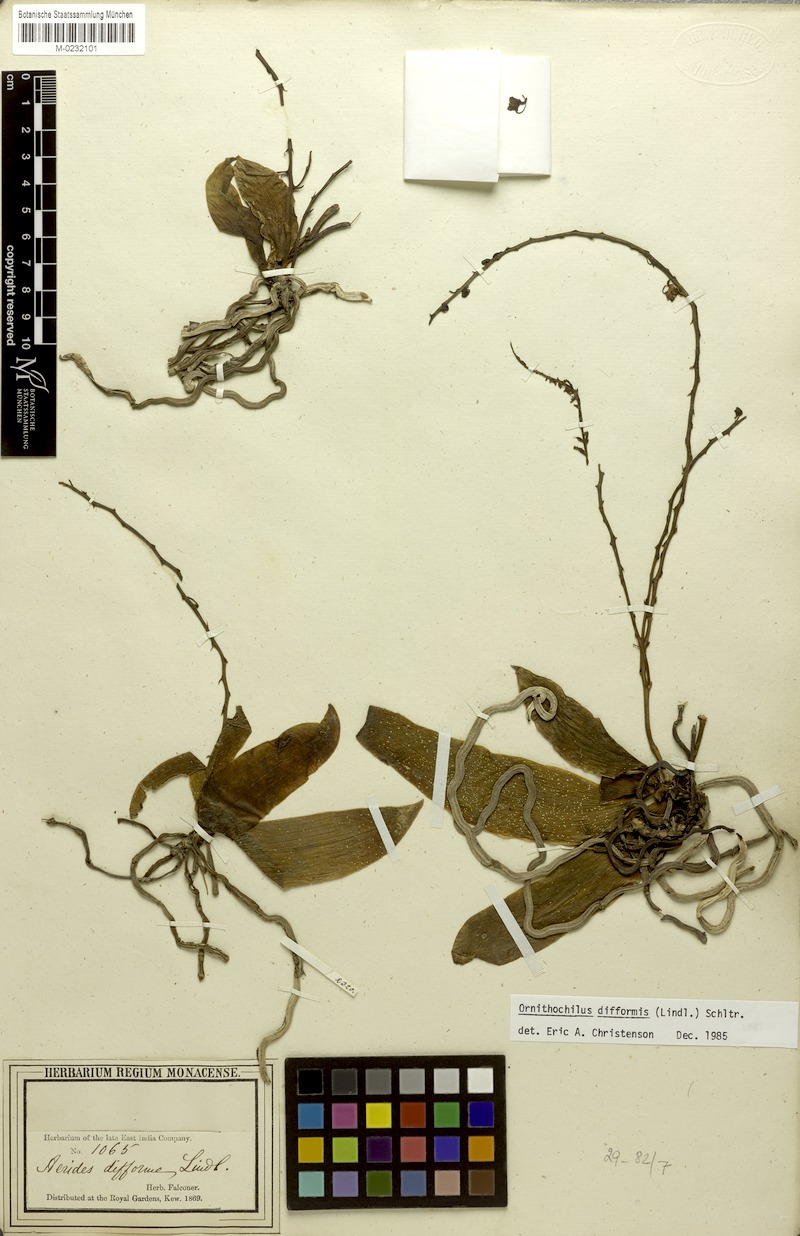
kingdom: Plantae
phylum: Tracheophyta
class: Liliopsida
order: Asparagales
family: Orchidaceae
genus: Phalaenopsis
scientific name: Phalaenopsis difformis
